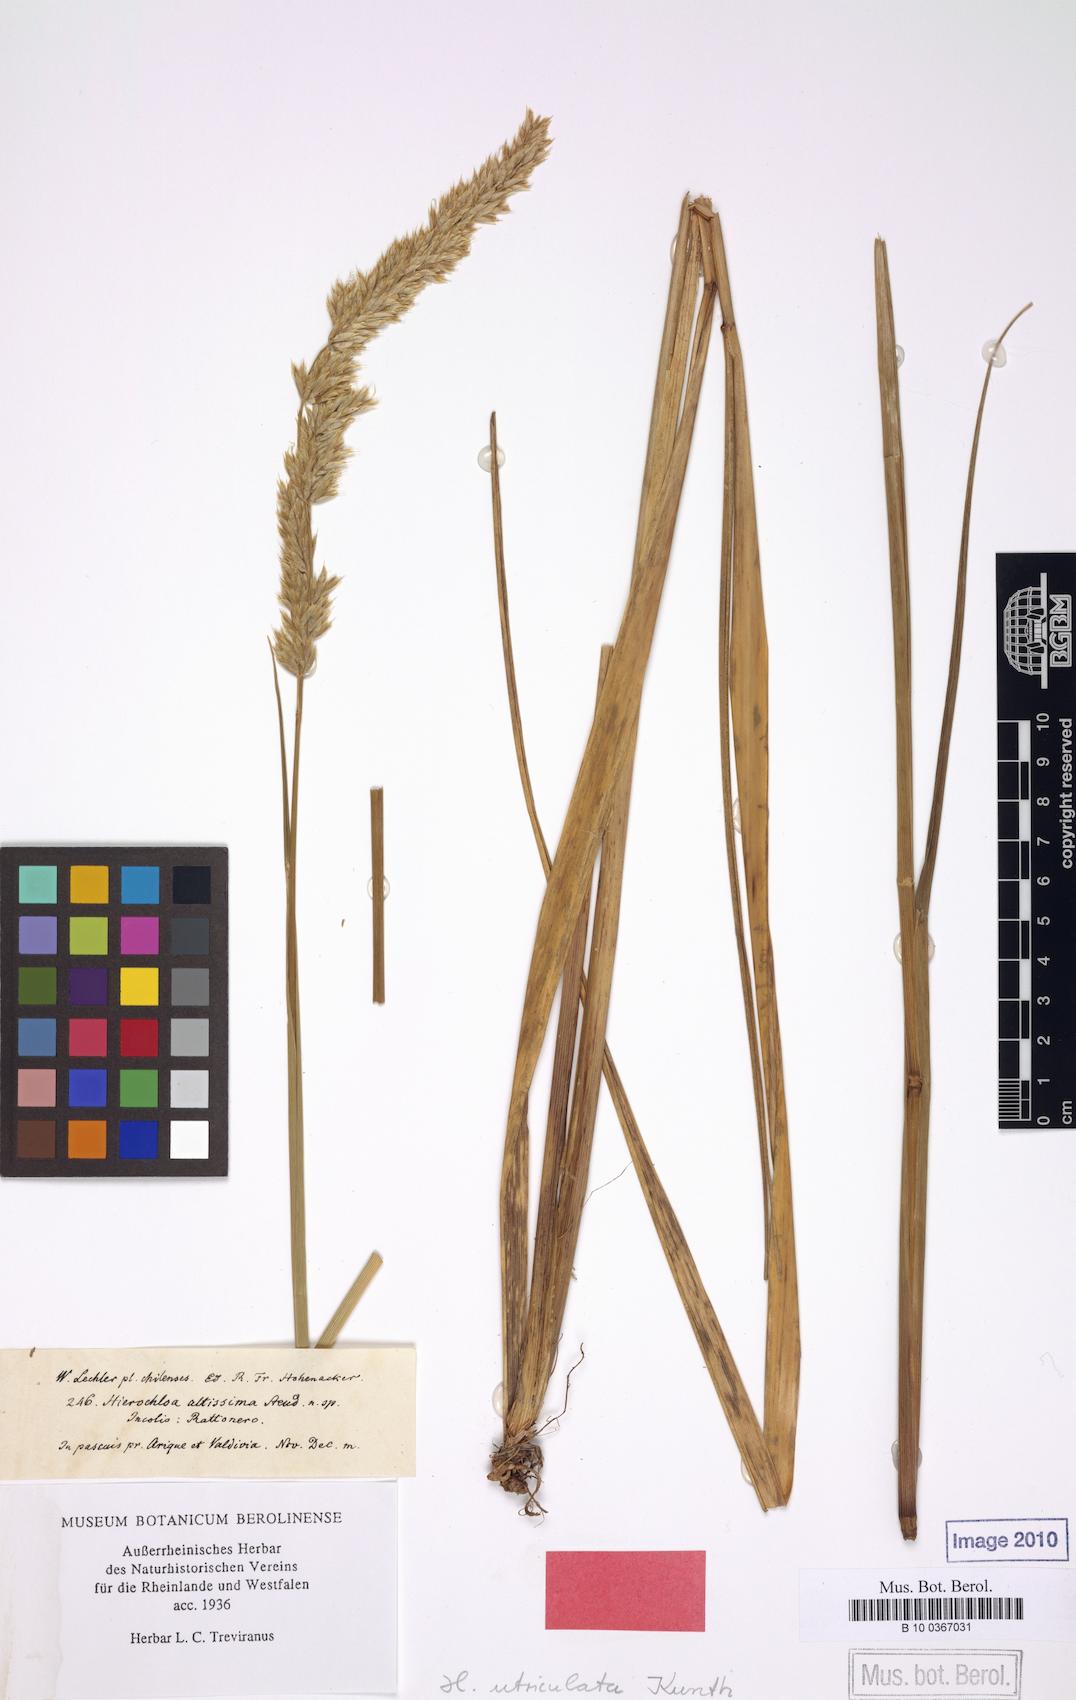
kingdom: Plantae
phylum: Tracheophyta
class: Liliopsida
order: Poales
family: Poaceae
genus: Anthoxanthum
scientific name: Anthoxanthum utriculatum
